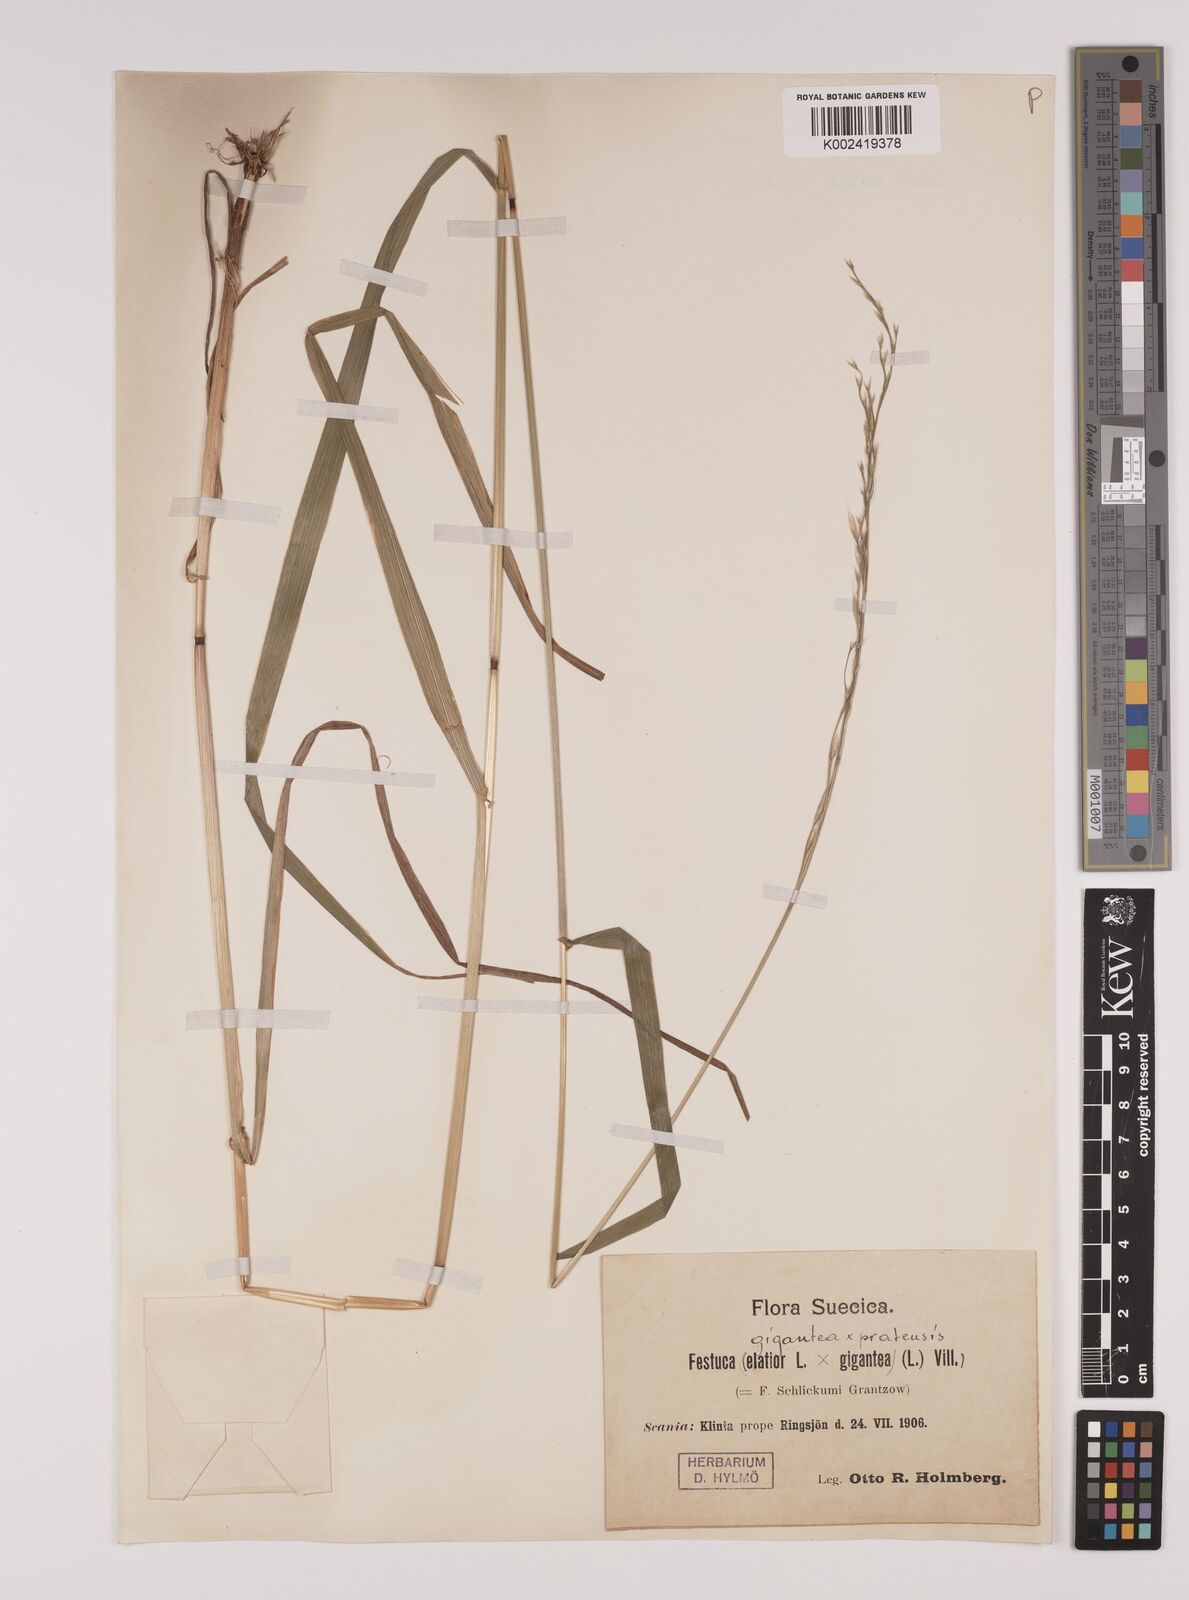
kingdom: Plantae
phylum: Tracheophyta
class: Liliopsida
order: Poales
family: Poaceae
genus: Lolium
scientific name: Lolium giganteum
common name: Giant fescue
